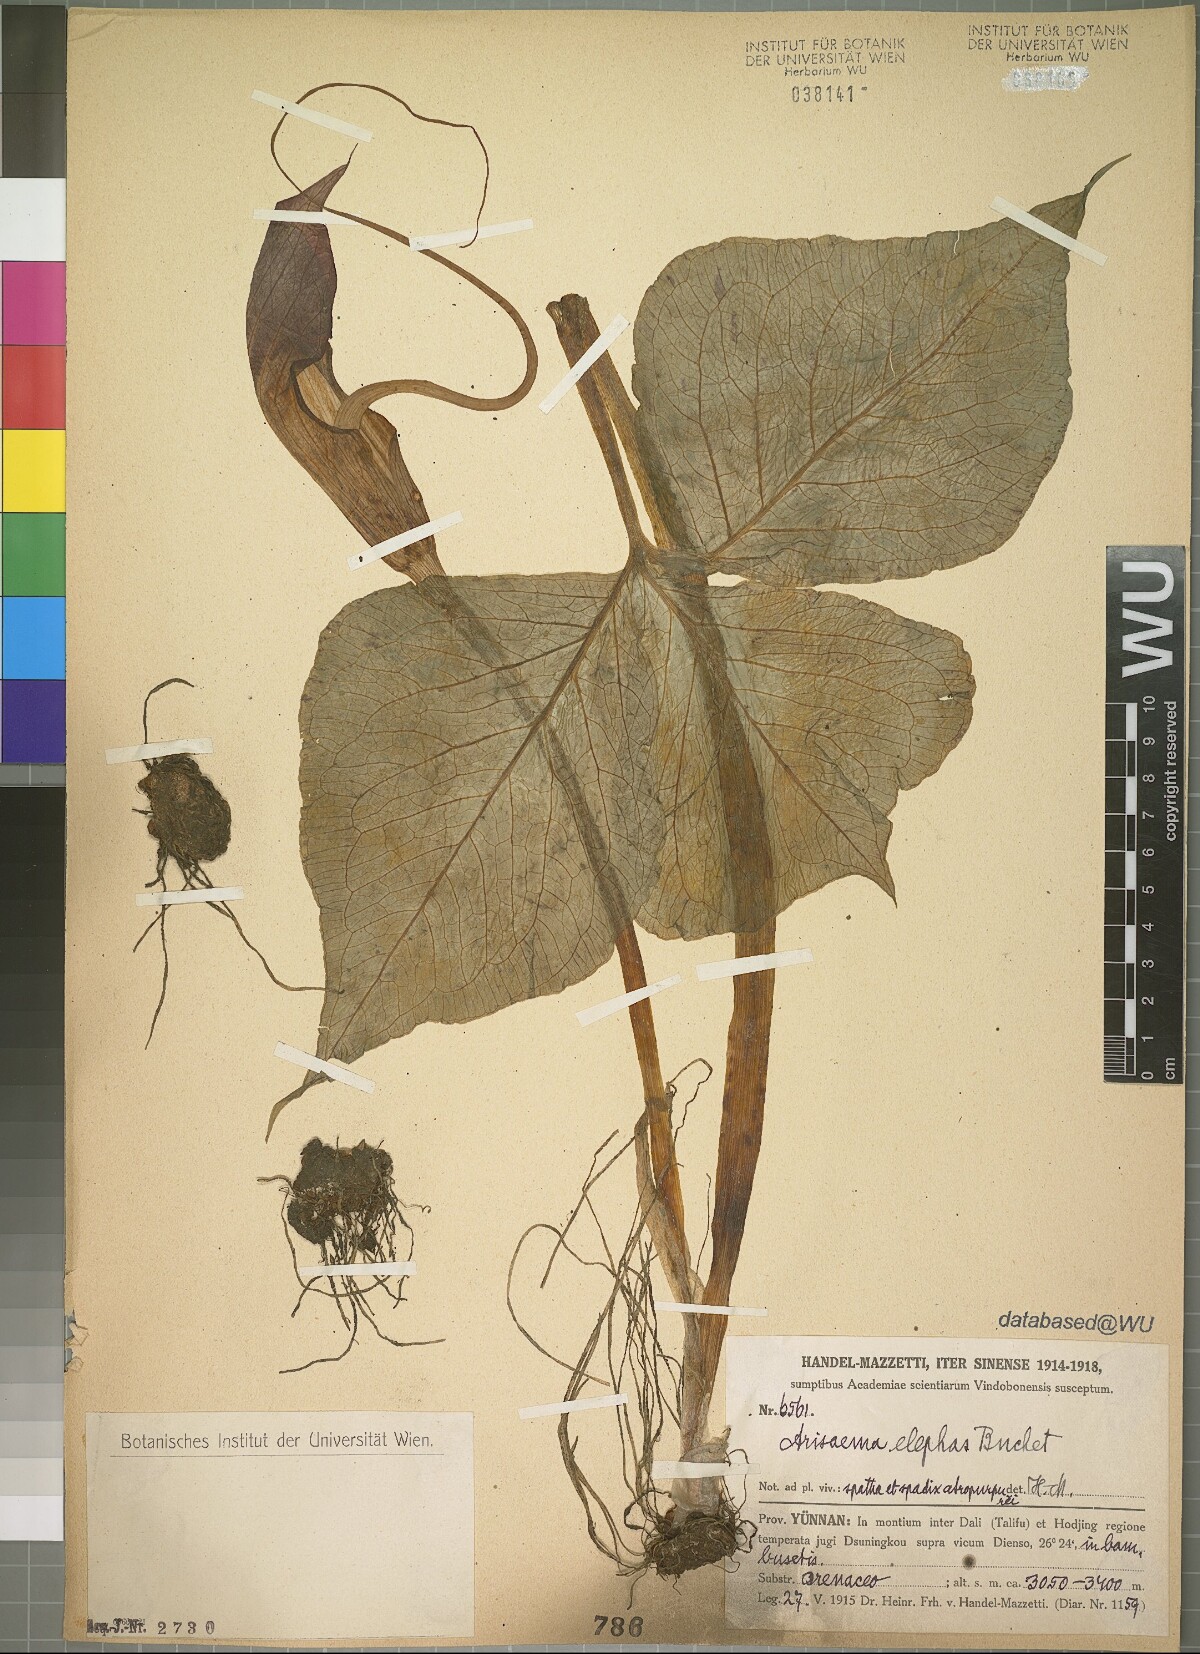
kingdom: Plantae
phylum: Tracheophyta
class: Liliopsida
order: Alismatales
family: Araceae
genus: Arisaema
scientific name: Arisaema elephas
